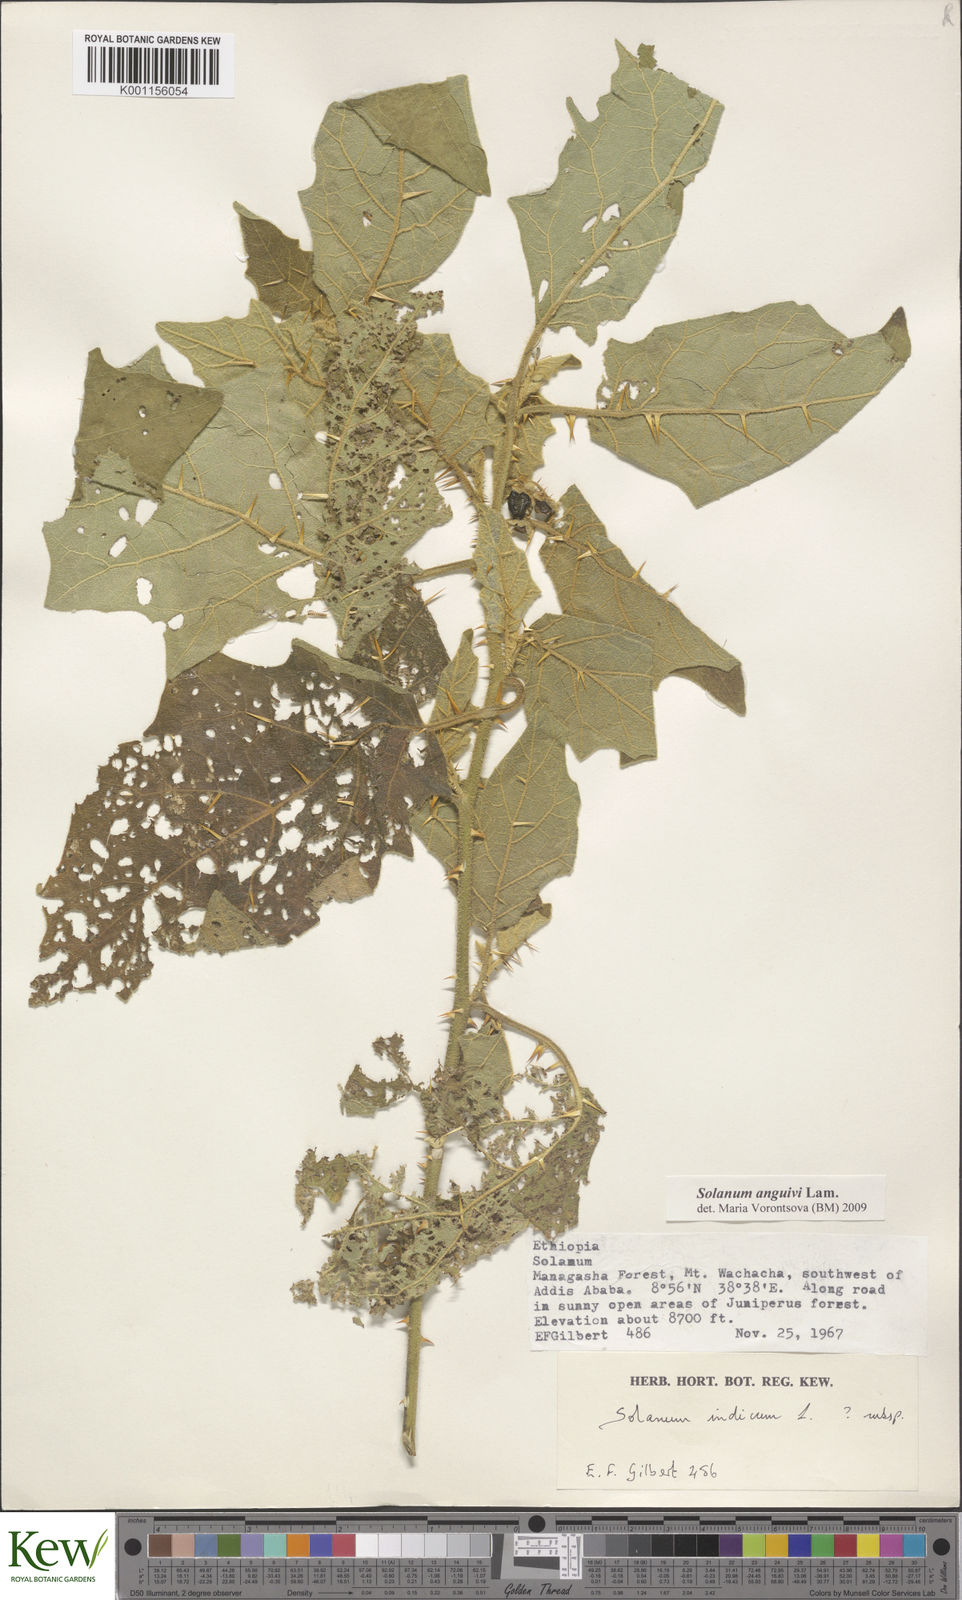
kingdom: Plantae
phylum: Tracheophyta
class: Magnoliopsida
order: Solanales
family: Solanaceae
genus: Solanum
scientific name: Solanum anguivi
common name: Forest bitterberry
